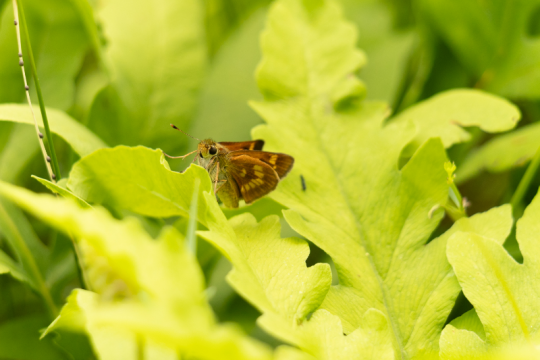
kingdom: Animalia
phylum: Arthropoda
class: Insecta
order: Lepidoptera
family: Hesperiidae
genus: Polites
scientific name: Polites
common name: Long Dash Skipper
